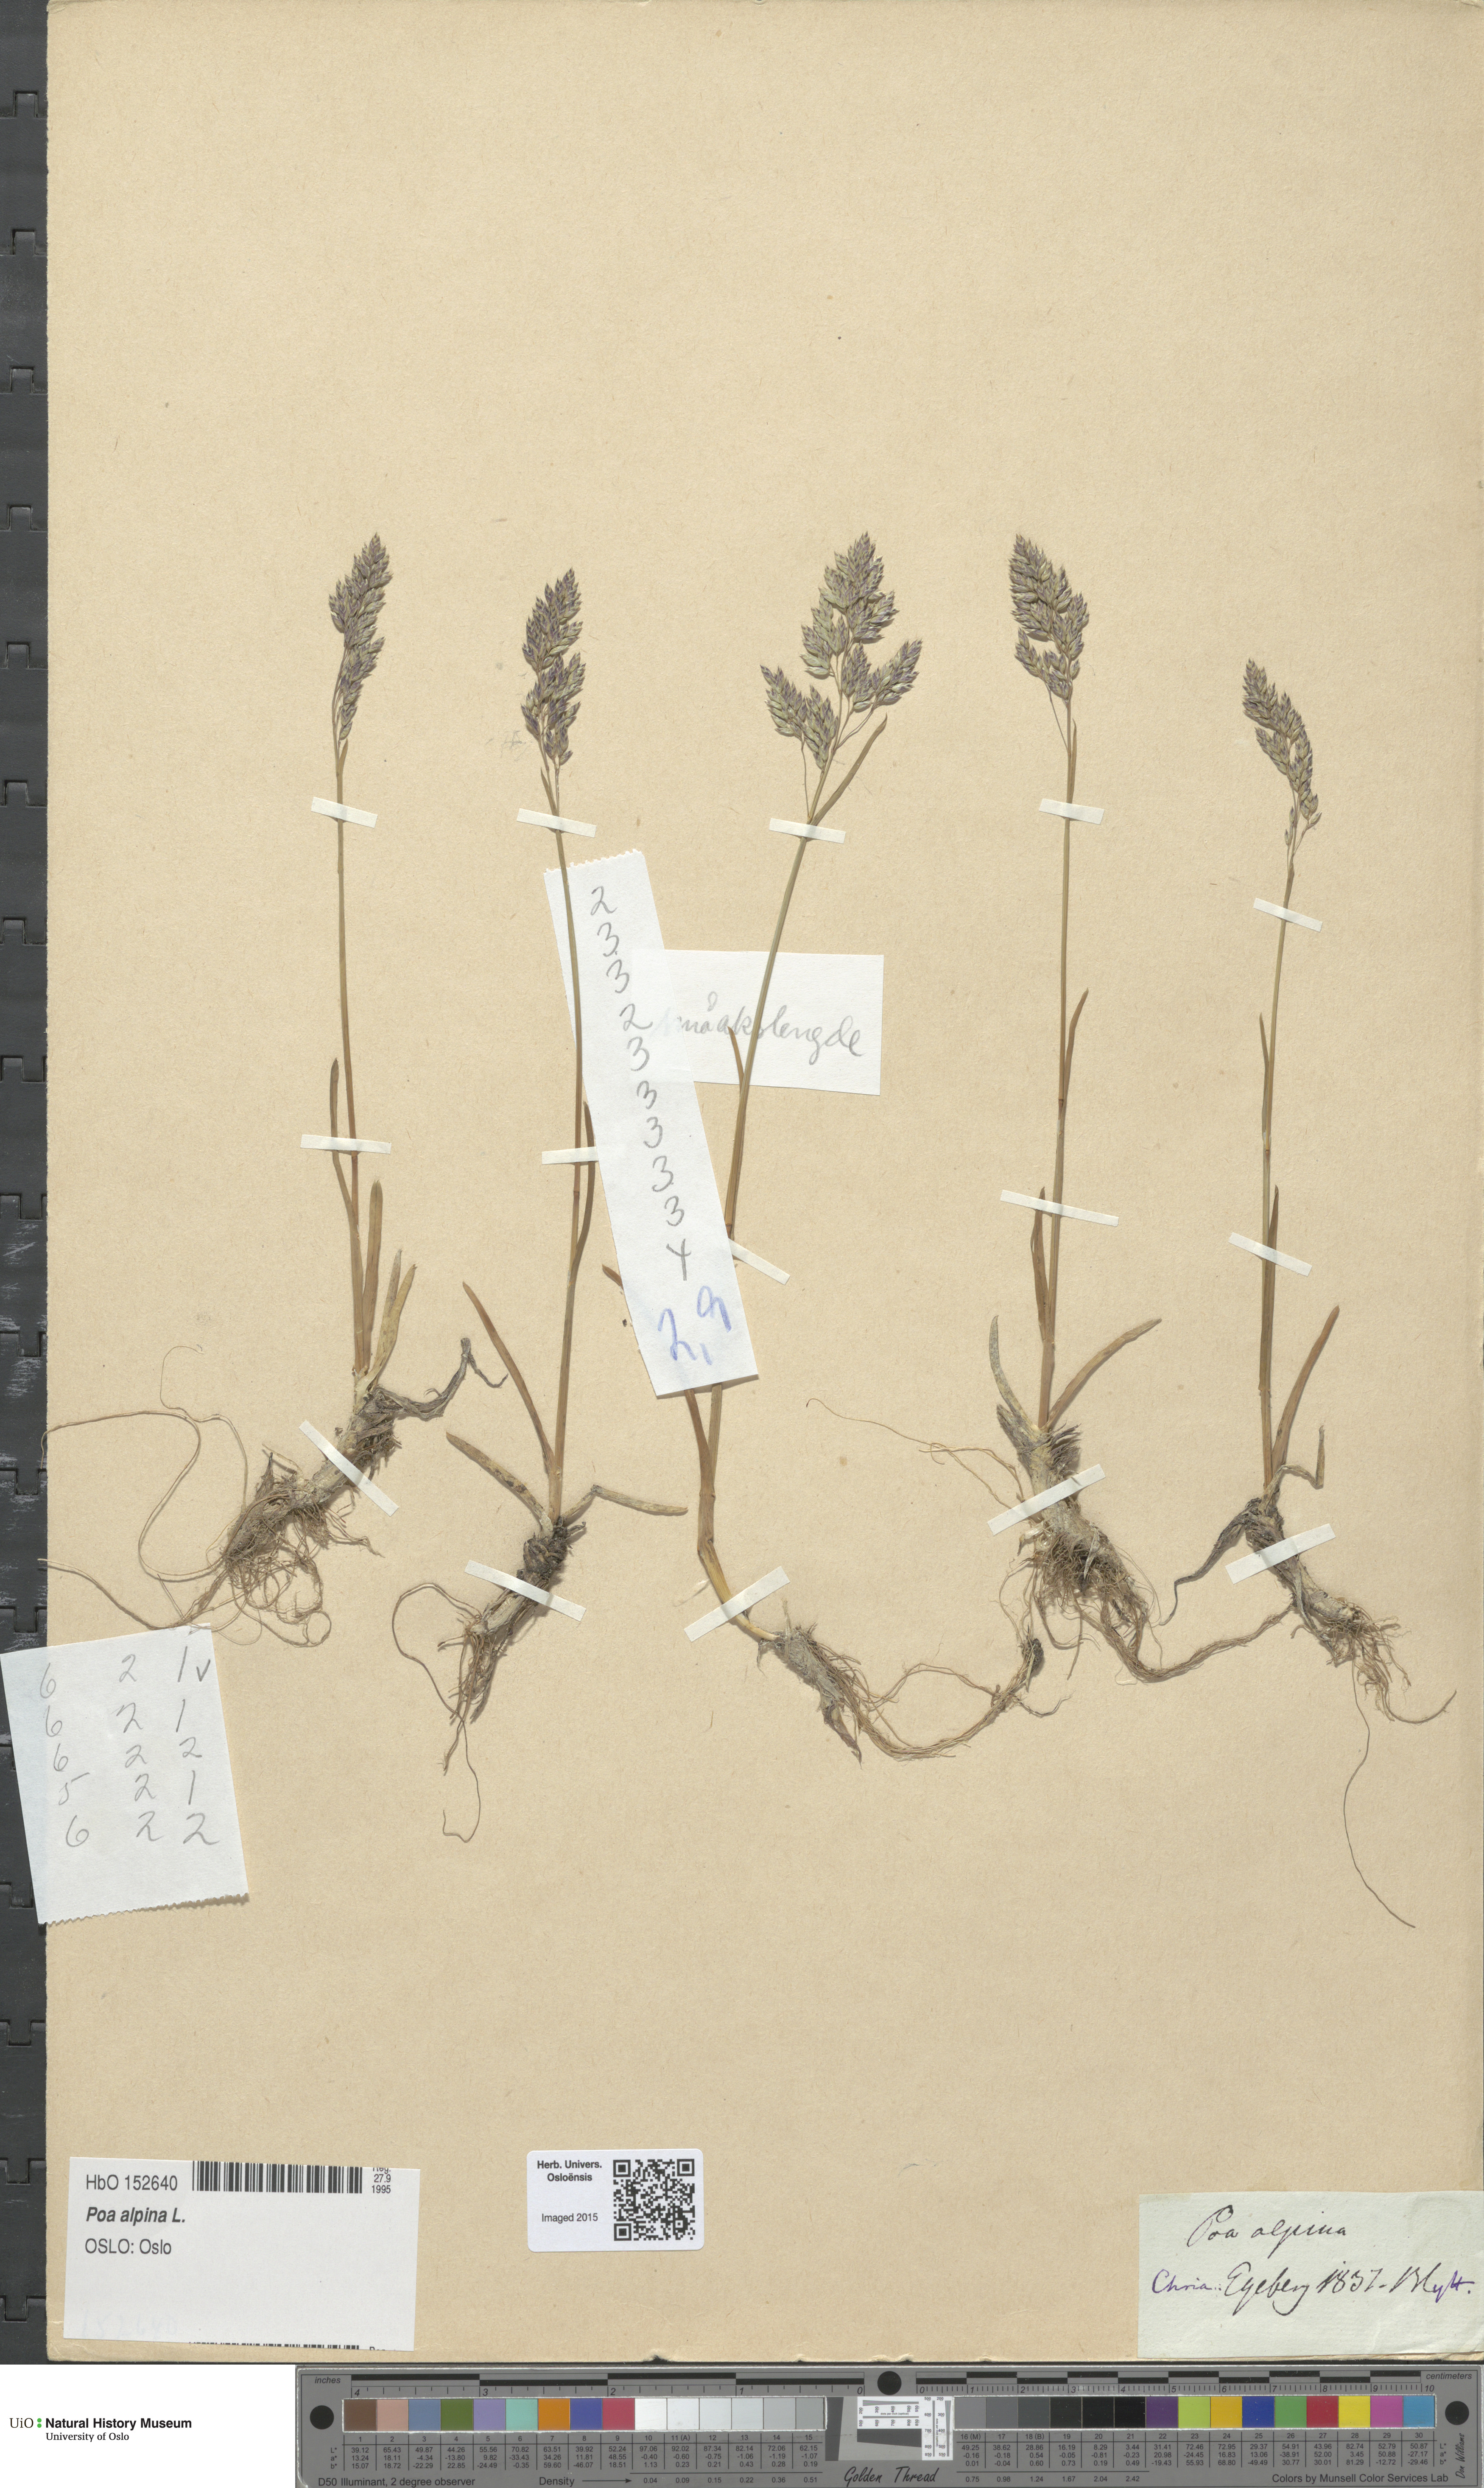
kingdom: Plantae
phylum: Tracheophyta
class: Liliopsida
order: Poales
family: Poaceae
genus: Poa
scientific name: Poa alpina
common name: Alpine bluegrass
